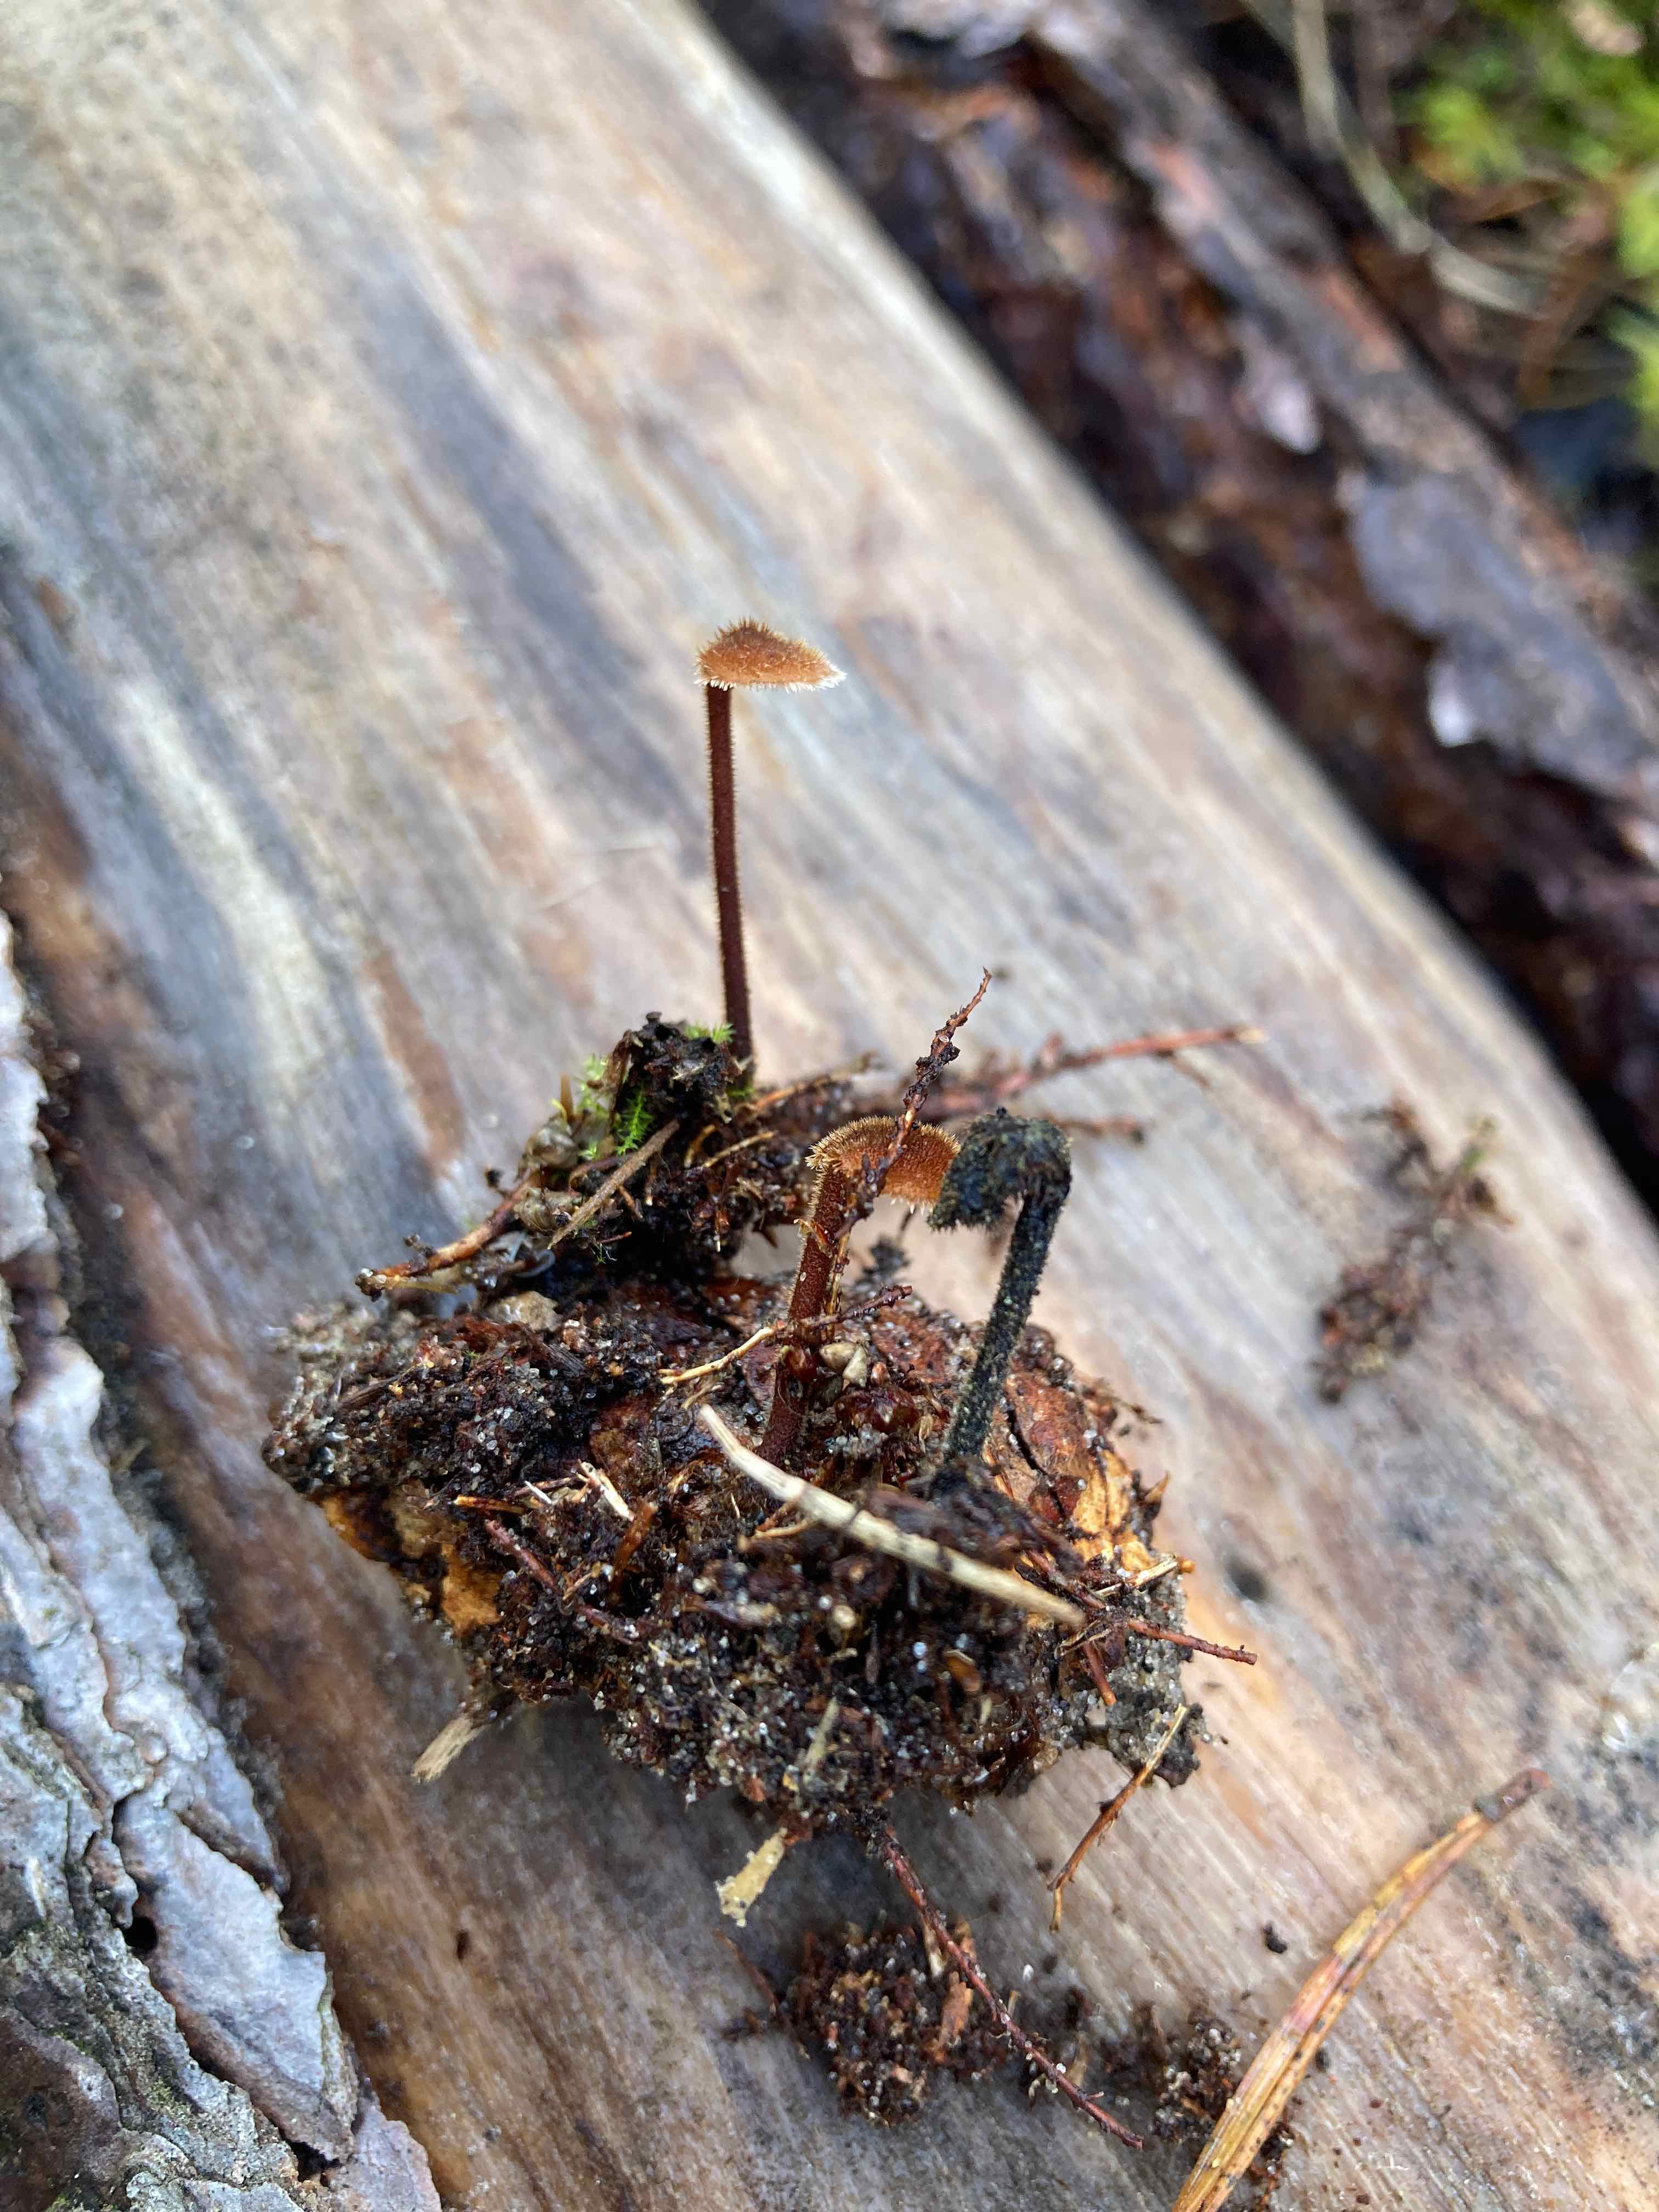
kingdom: Fungi
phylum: Basidiomycota
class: Agaricomycetes
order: Russulales
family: Auriscalpiaceae
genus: Auriscalpium
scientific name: Auriscalpium vulgare
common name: koglepigsvamp
